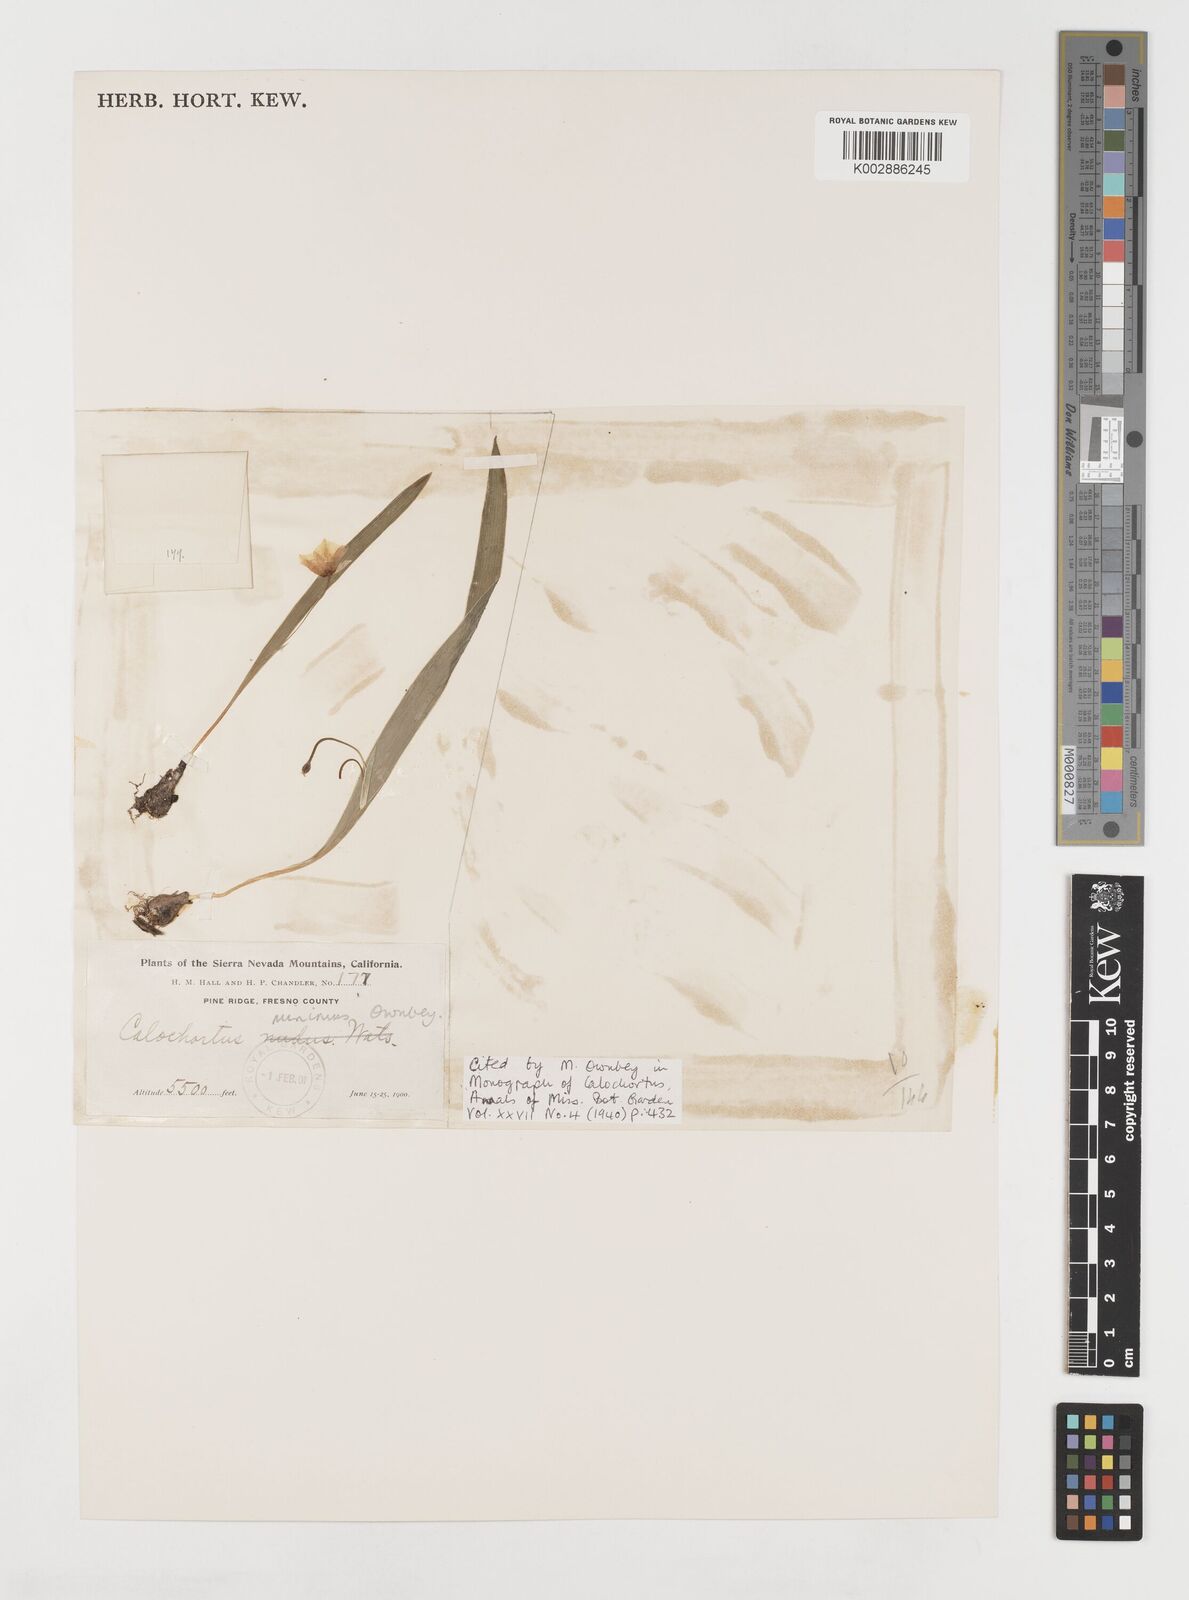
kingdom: Plantae
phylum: Tracheophyta
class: Liliopsida
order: Liliales
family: Liliaceae
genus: Calochortus
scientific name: Calochortus minimus
